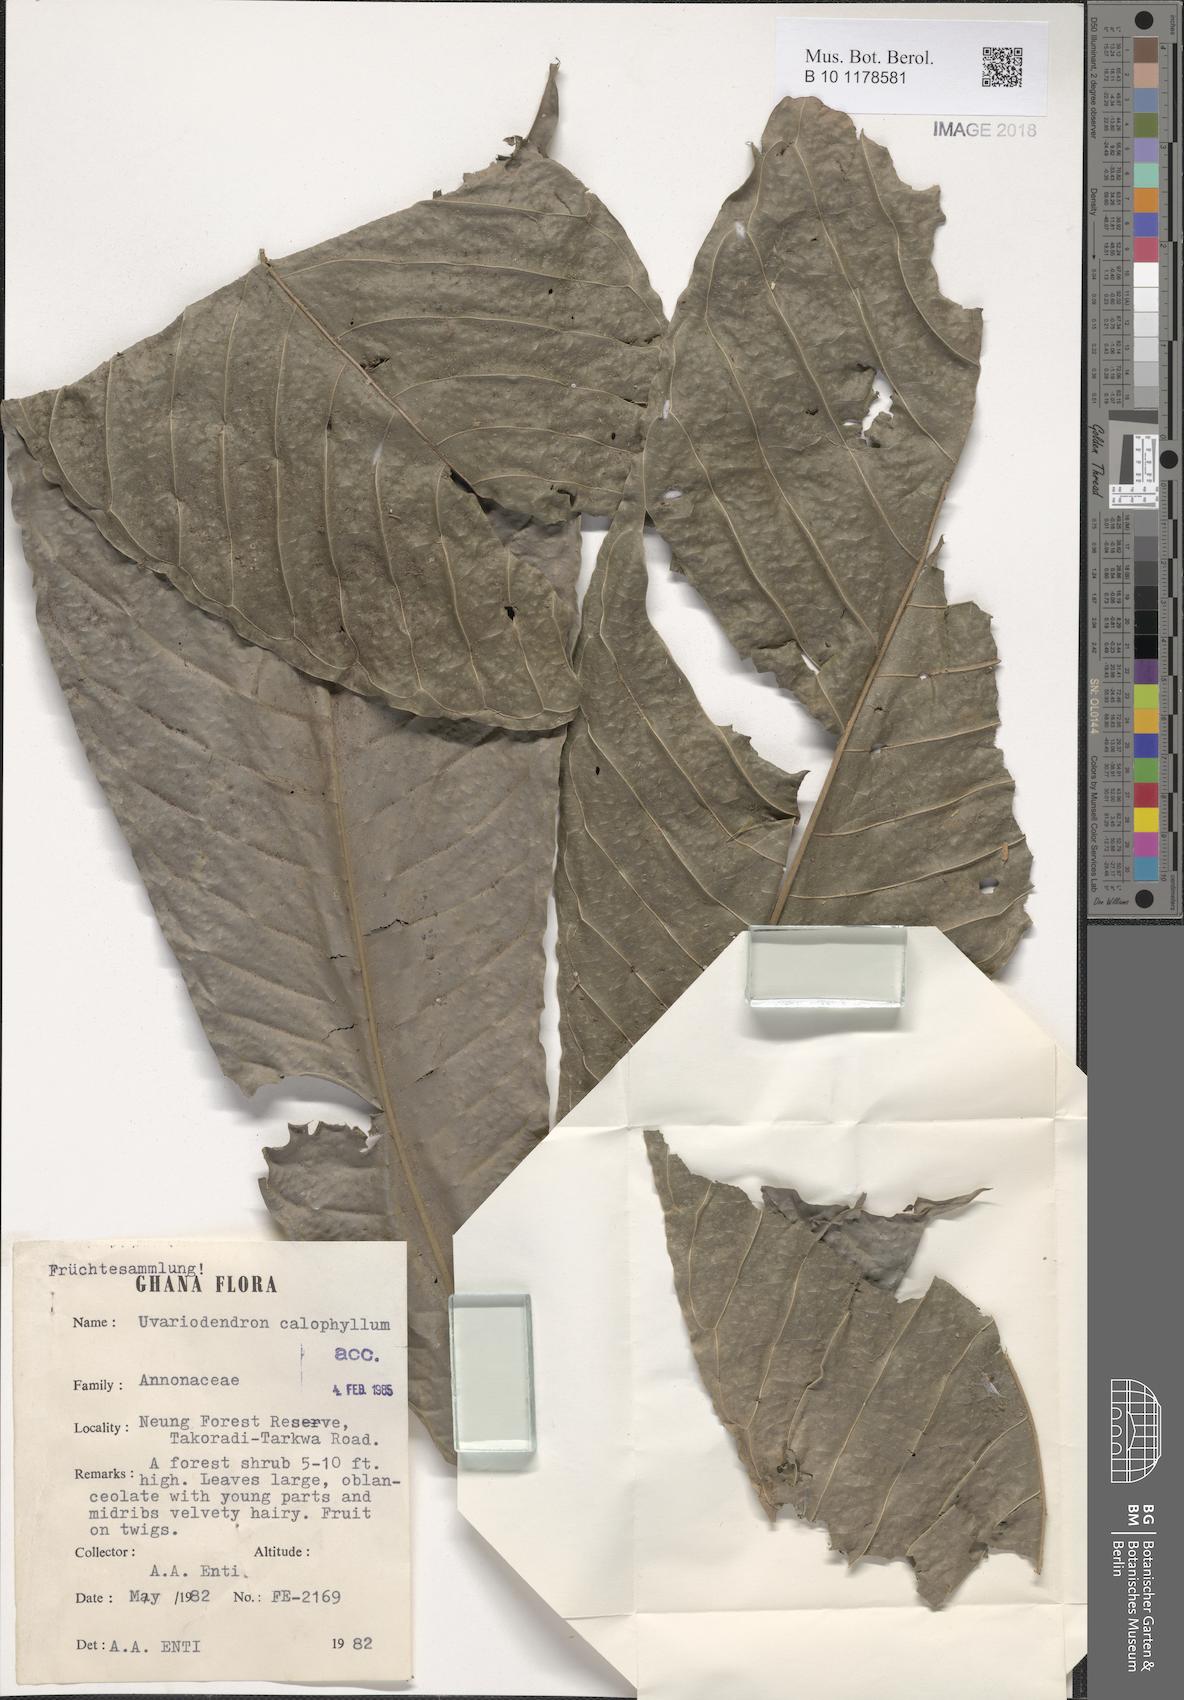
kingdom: Plantae
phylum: Tracheophyta
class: Magnoliopsida
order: Magnoliales
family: Annonaceae
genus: Uvariodendron
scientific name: Uvariodendron calophyllum
